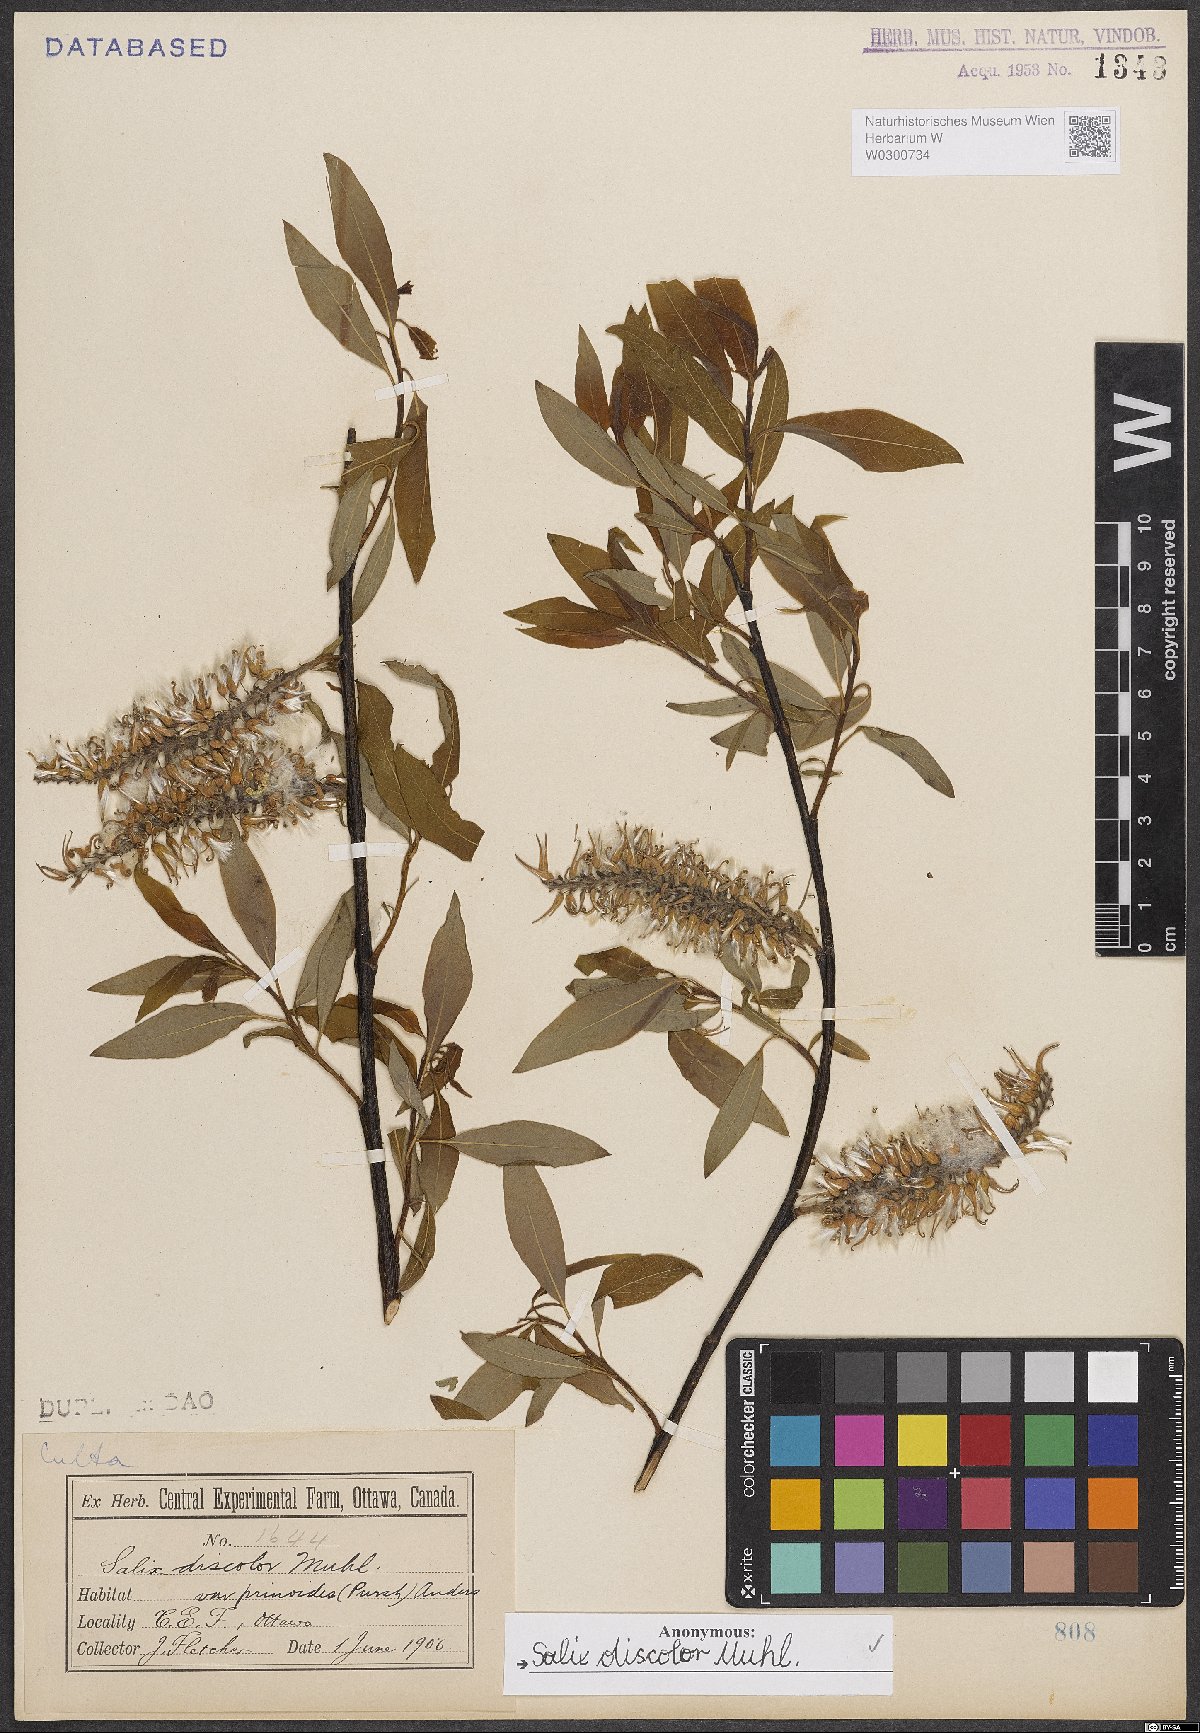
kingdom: Plantae
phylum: Tracheophyta
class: Magnoliopsida
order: Malpighiales
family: Salicaceae
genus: Salix
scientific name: Salix discolor
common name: Glaucous willow
